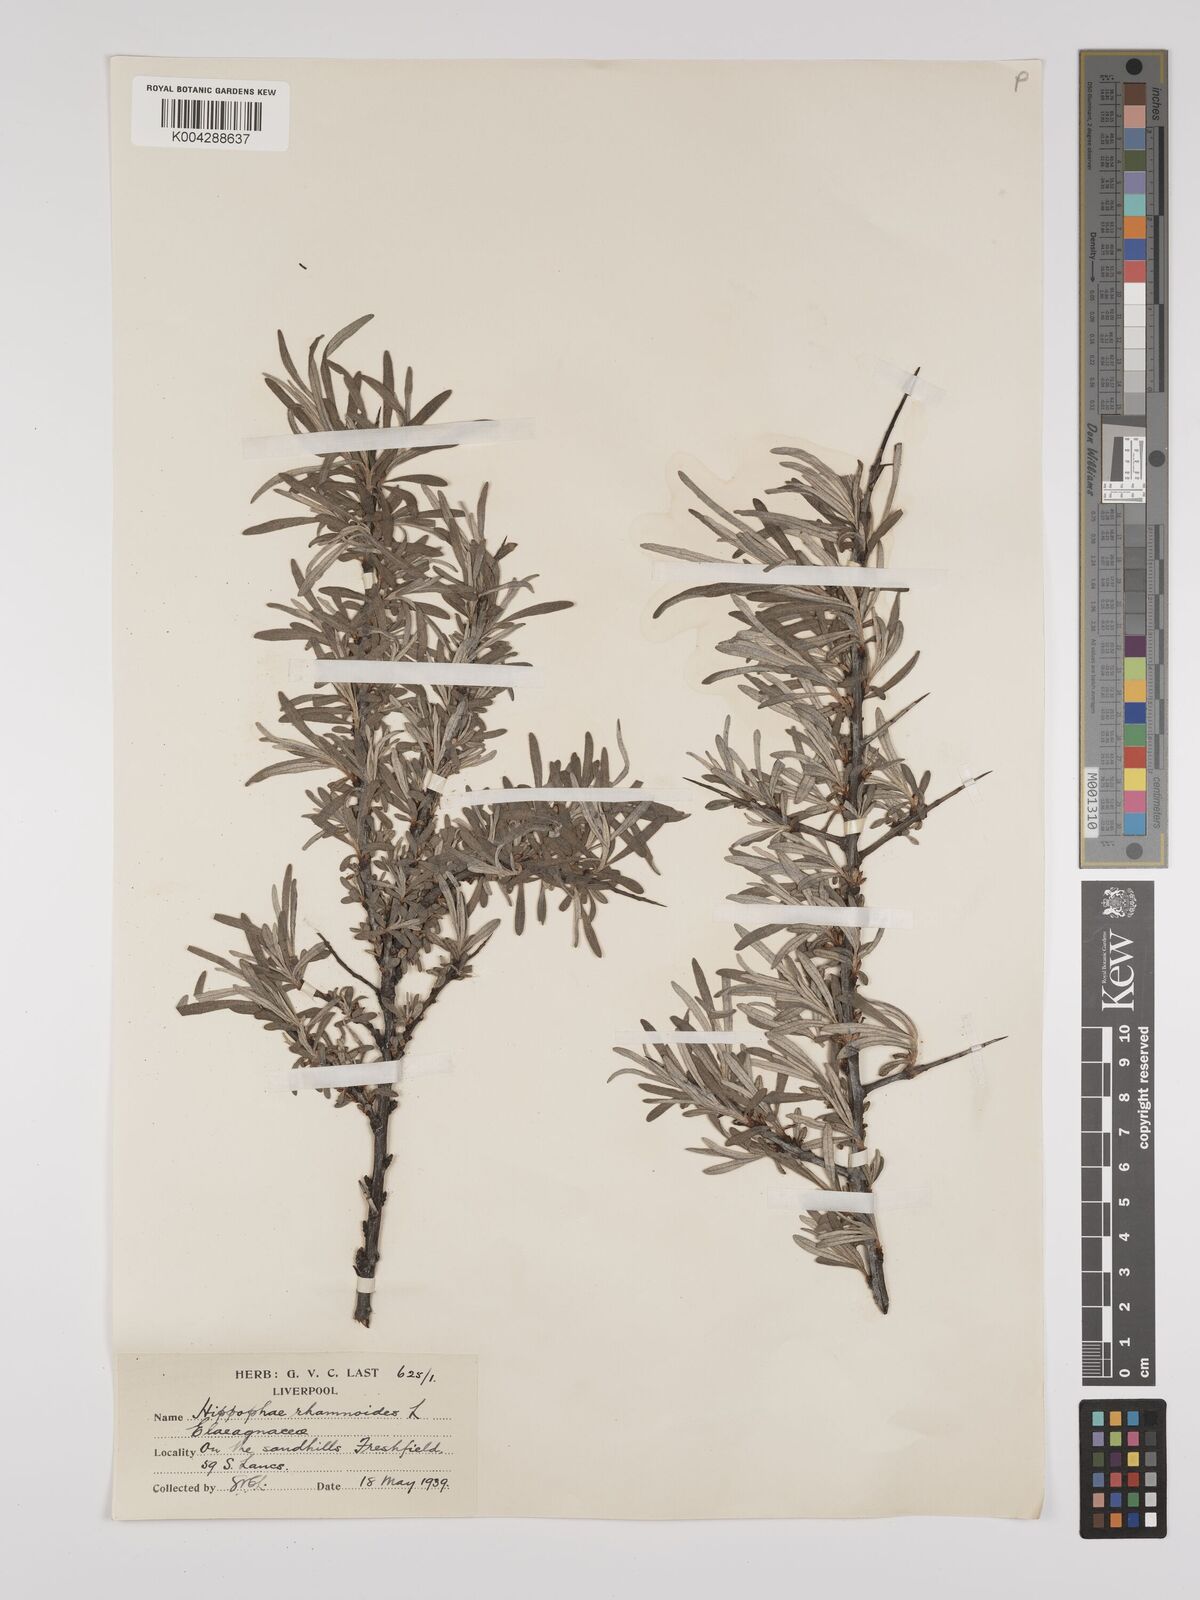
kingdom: Plantae
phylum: Tracheophyta
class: Magnoliopsida
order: Rosales
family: Elaeagnaceae
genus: Hippophae
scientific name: Hippophae rhamnoides
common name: Sea-buckthorn
